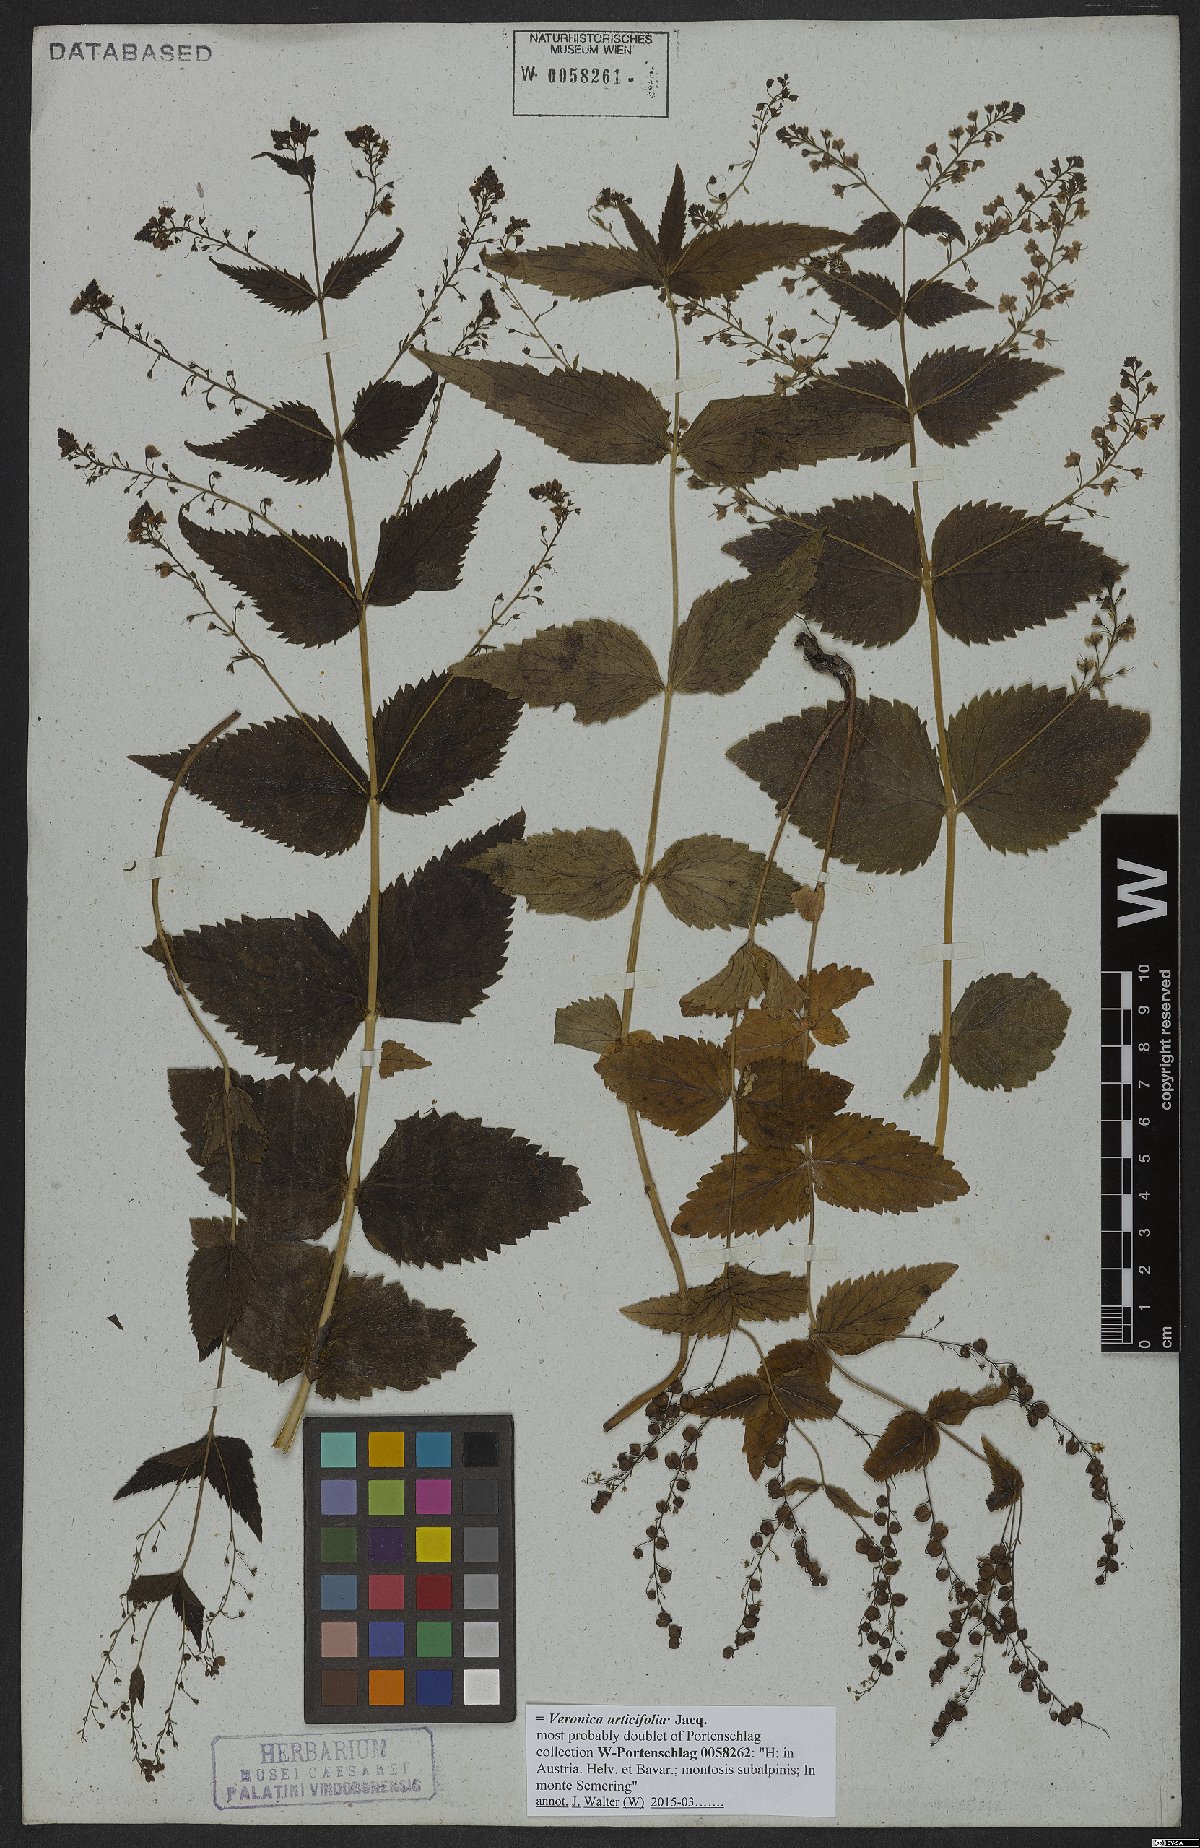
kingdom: Plantae
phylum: Tracheophyta
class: Magnoliopsida
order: Lamiales
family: Plantaginaceae
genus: Veronica
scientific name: Veronica urticifolia
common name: Nettle-leaf speedwell
